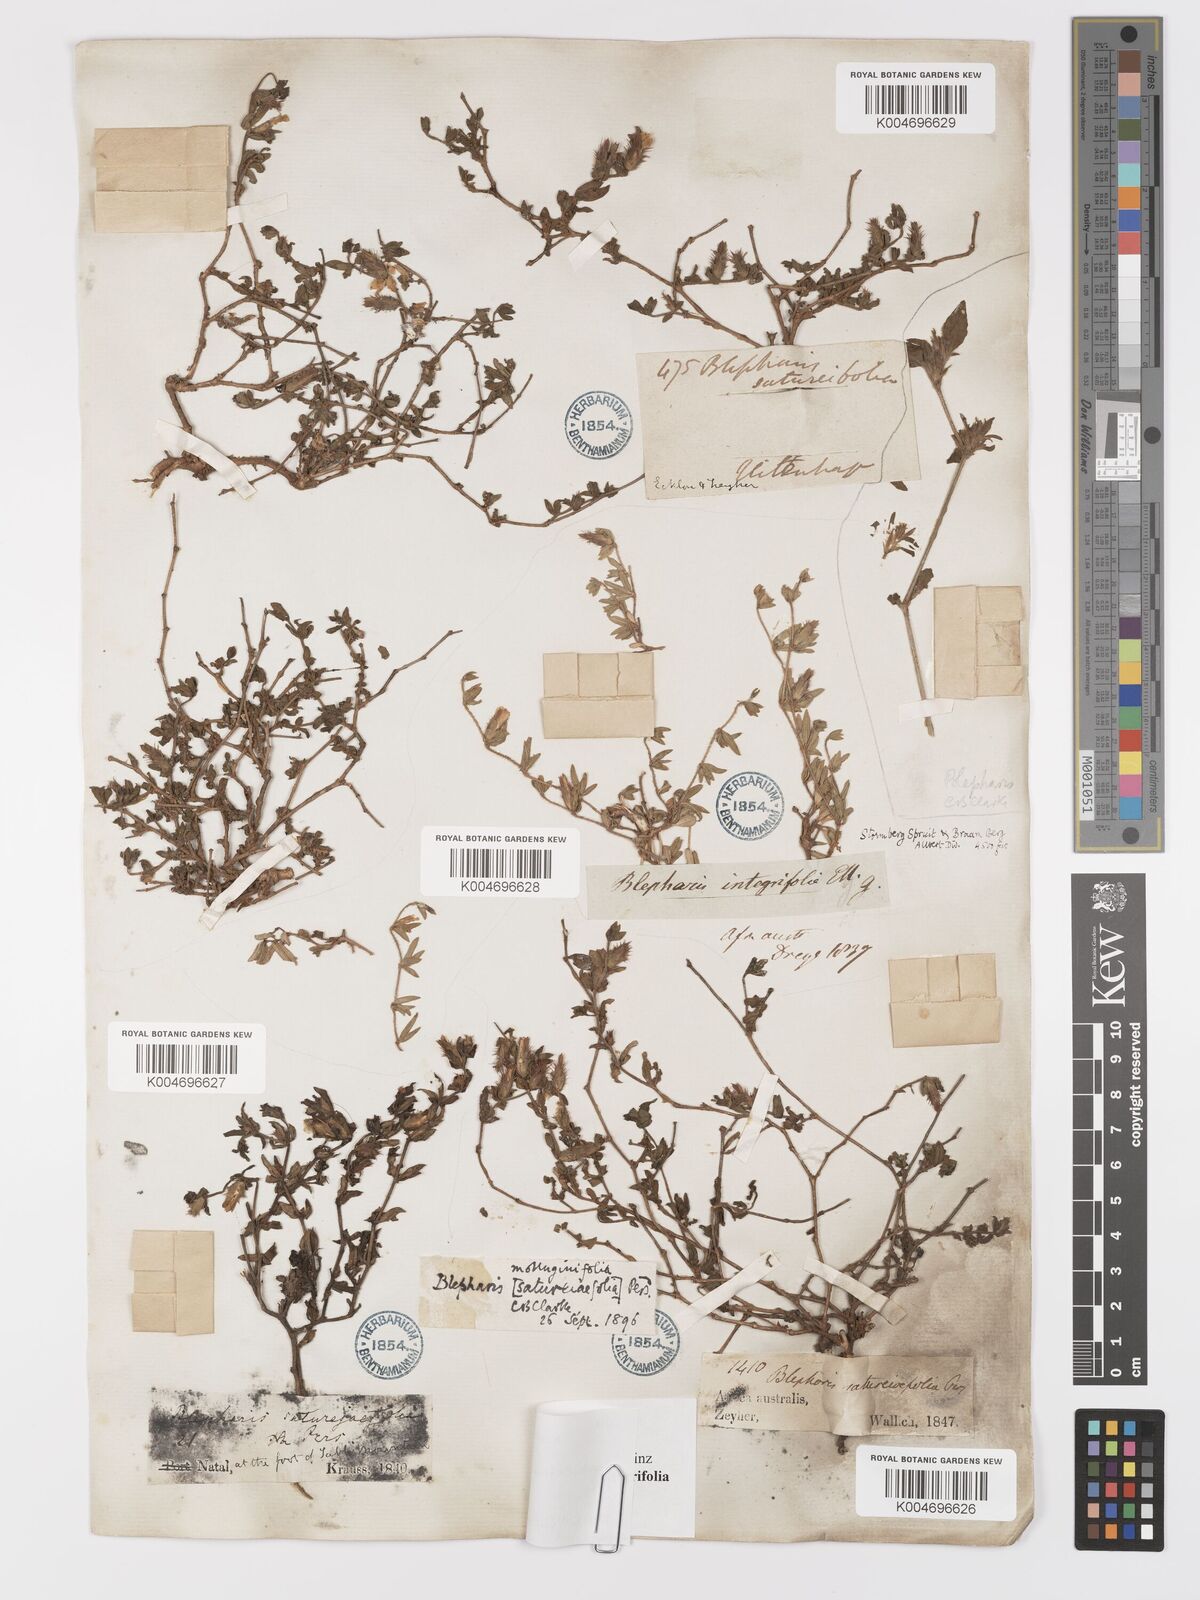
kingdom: Plantae
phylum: Tracheophyta
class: Magnoliopsida
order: Lamiales
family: Acanthaceae
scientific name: Acanthaceae
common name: Acanthaceae
